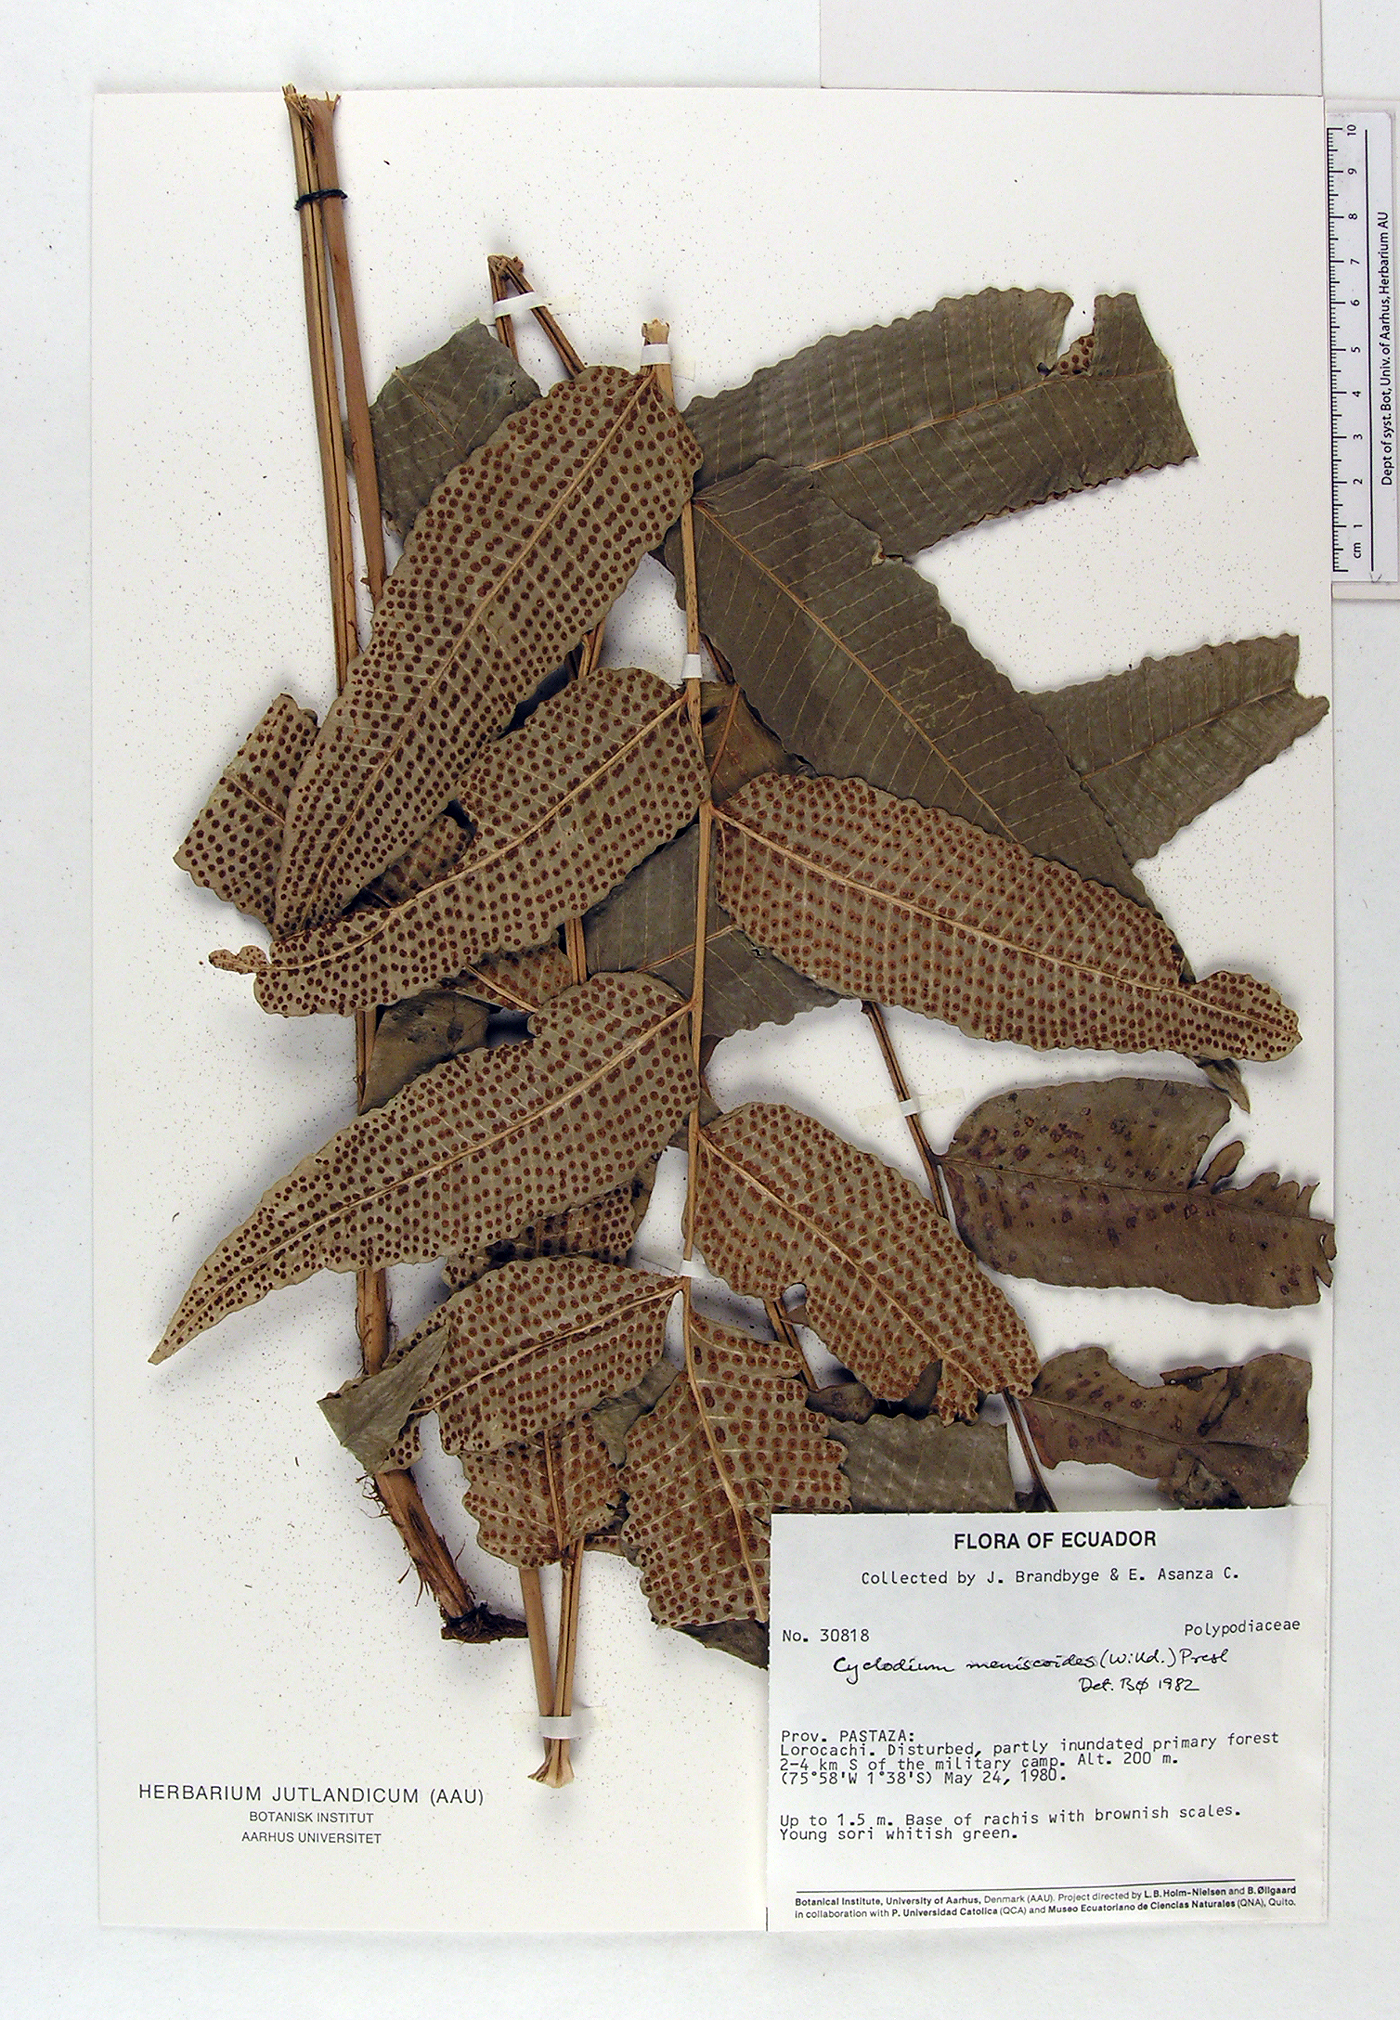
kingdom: Plantae
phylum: Tracheophyta
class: Polypodiopsida
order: Polypodiales
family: Dryopteridaceae
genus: Cyclodium
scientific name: Cyclodium meniscioides
